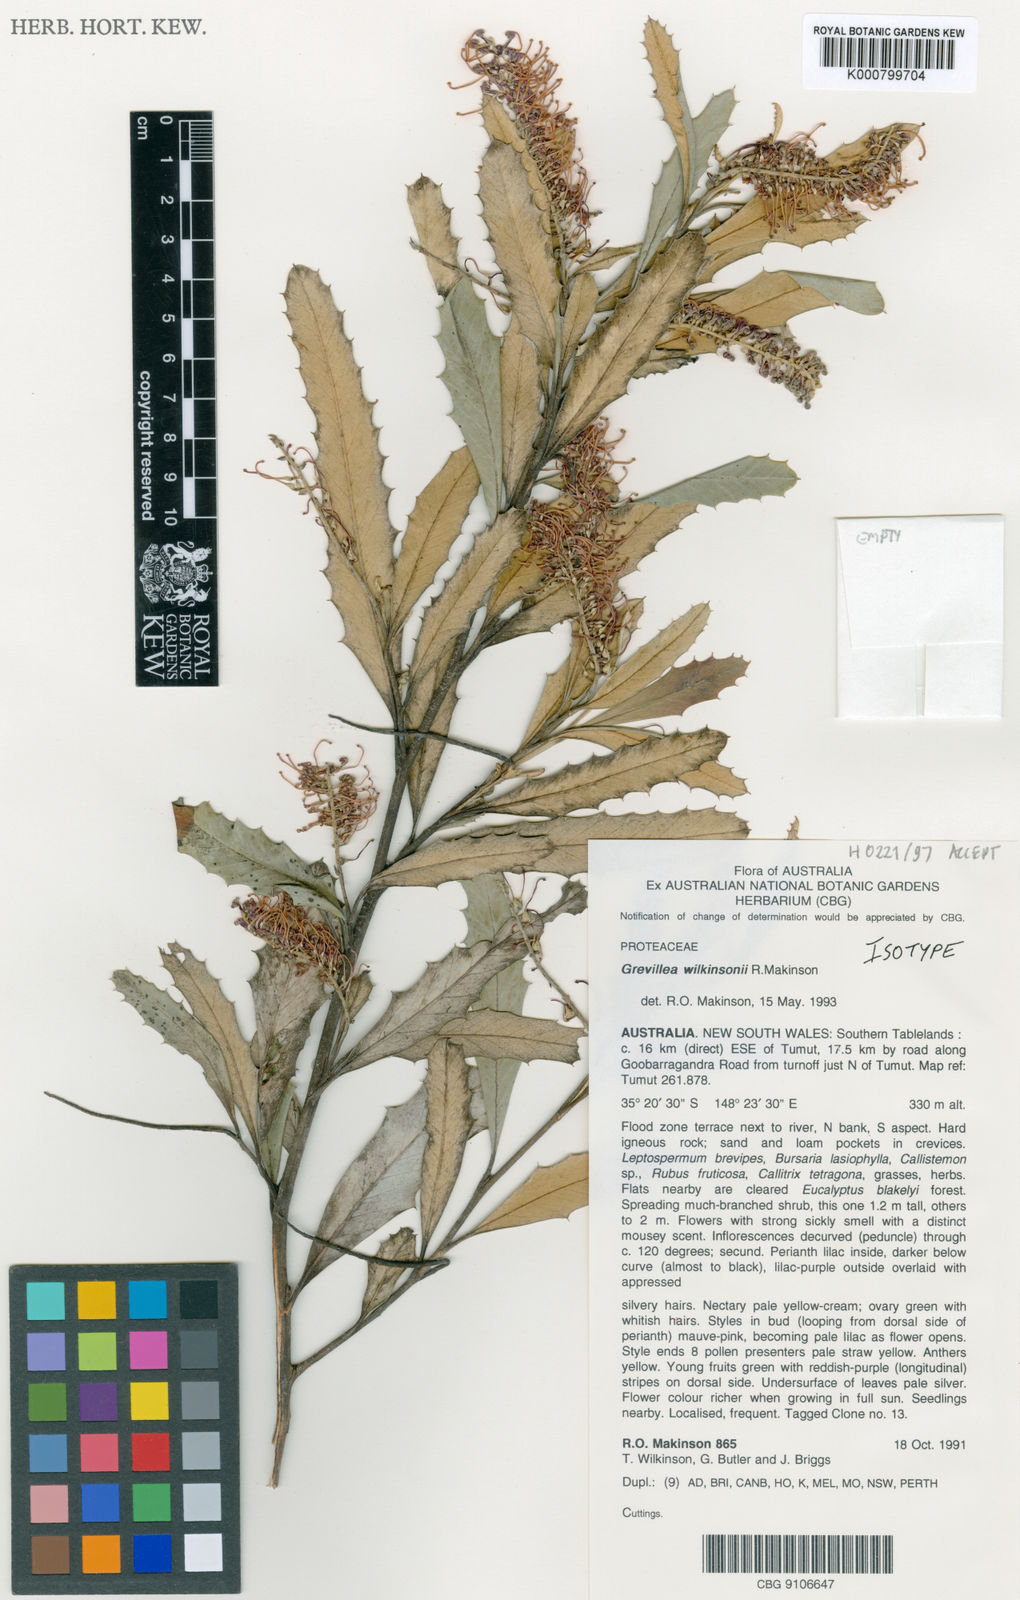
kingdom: Plantae
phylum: Tracheophyta
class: Magnoliopsida
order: Proteales
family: Proteaceae
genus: Grevillea
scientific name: Grevillea wilkinsonii
